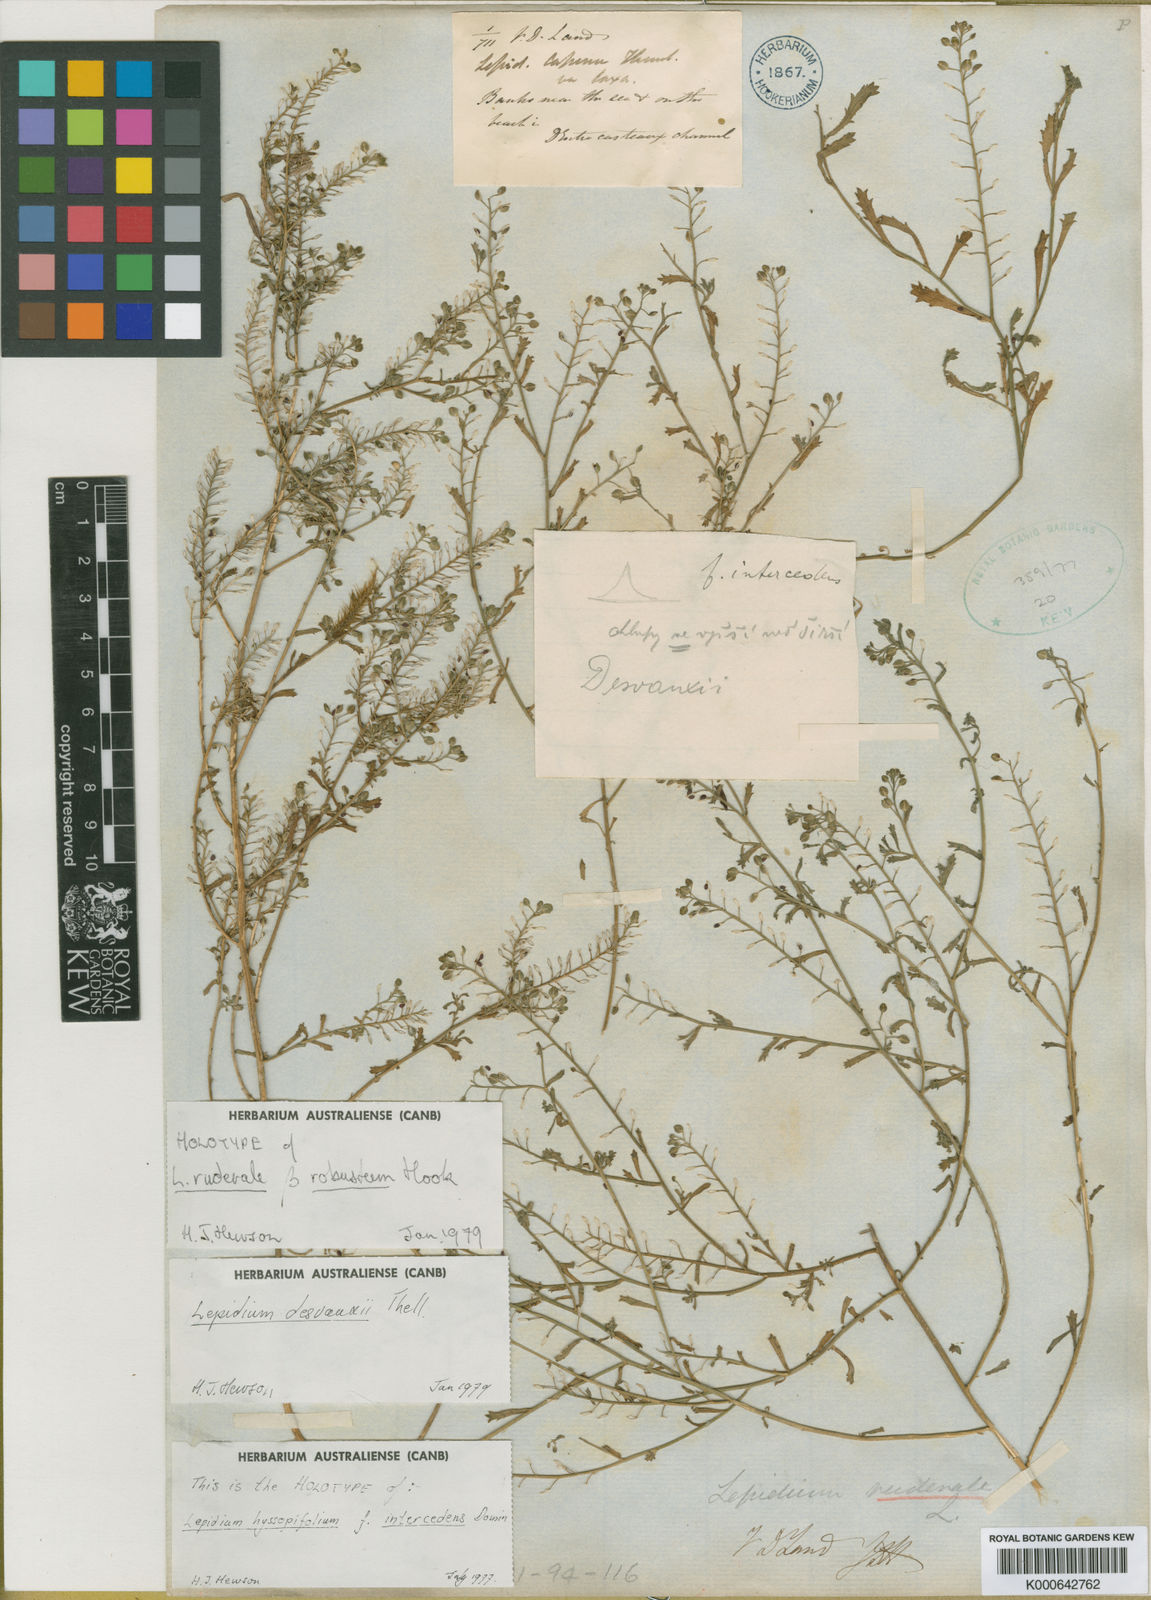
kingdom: Plantae
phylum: Tracheophyta
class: Magnoliopsida
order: Brassicales
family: Brassicaceae
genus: Lepidium
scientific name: Lepidium desvauxii
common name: Bushy pepperwort
